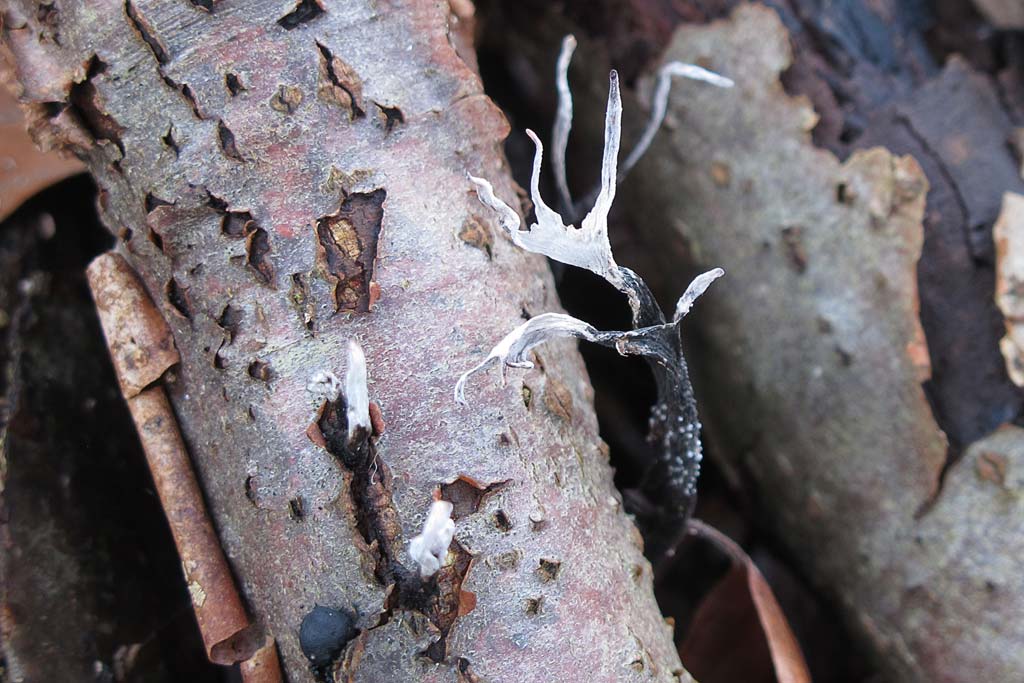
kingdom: Fungi
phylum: Ascomycota
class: Sordariomycetes
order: Xylariales
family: Xylariaceae
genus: Xylaria
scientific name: Xylaria hypoxylon
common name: grenet stødsvamp
